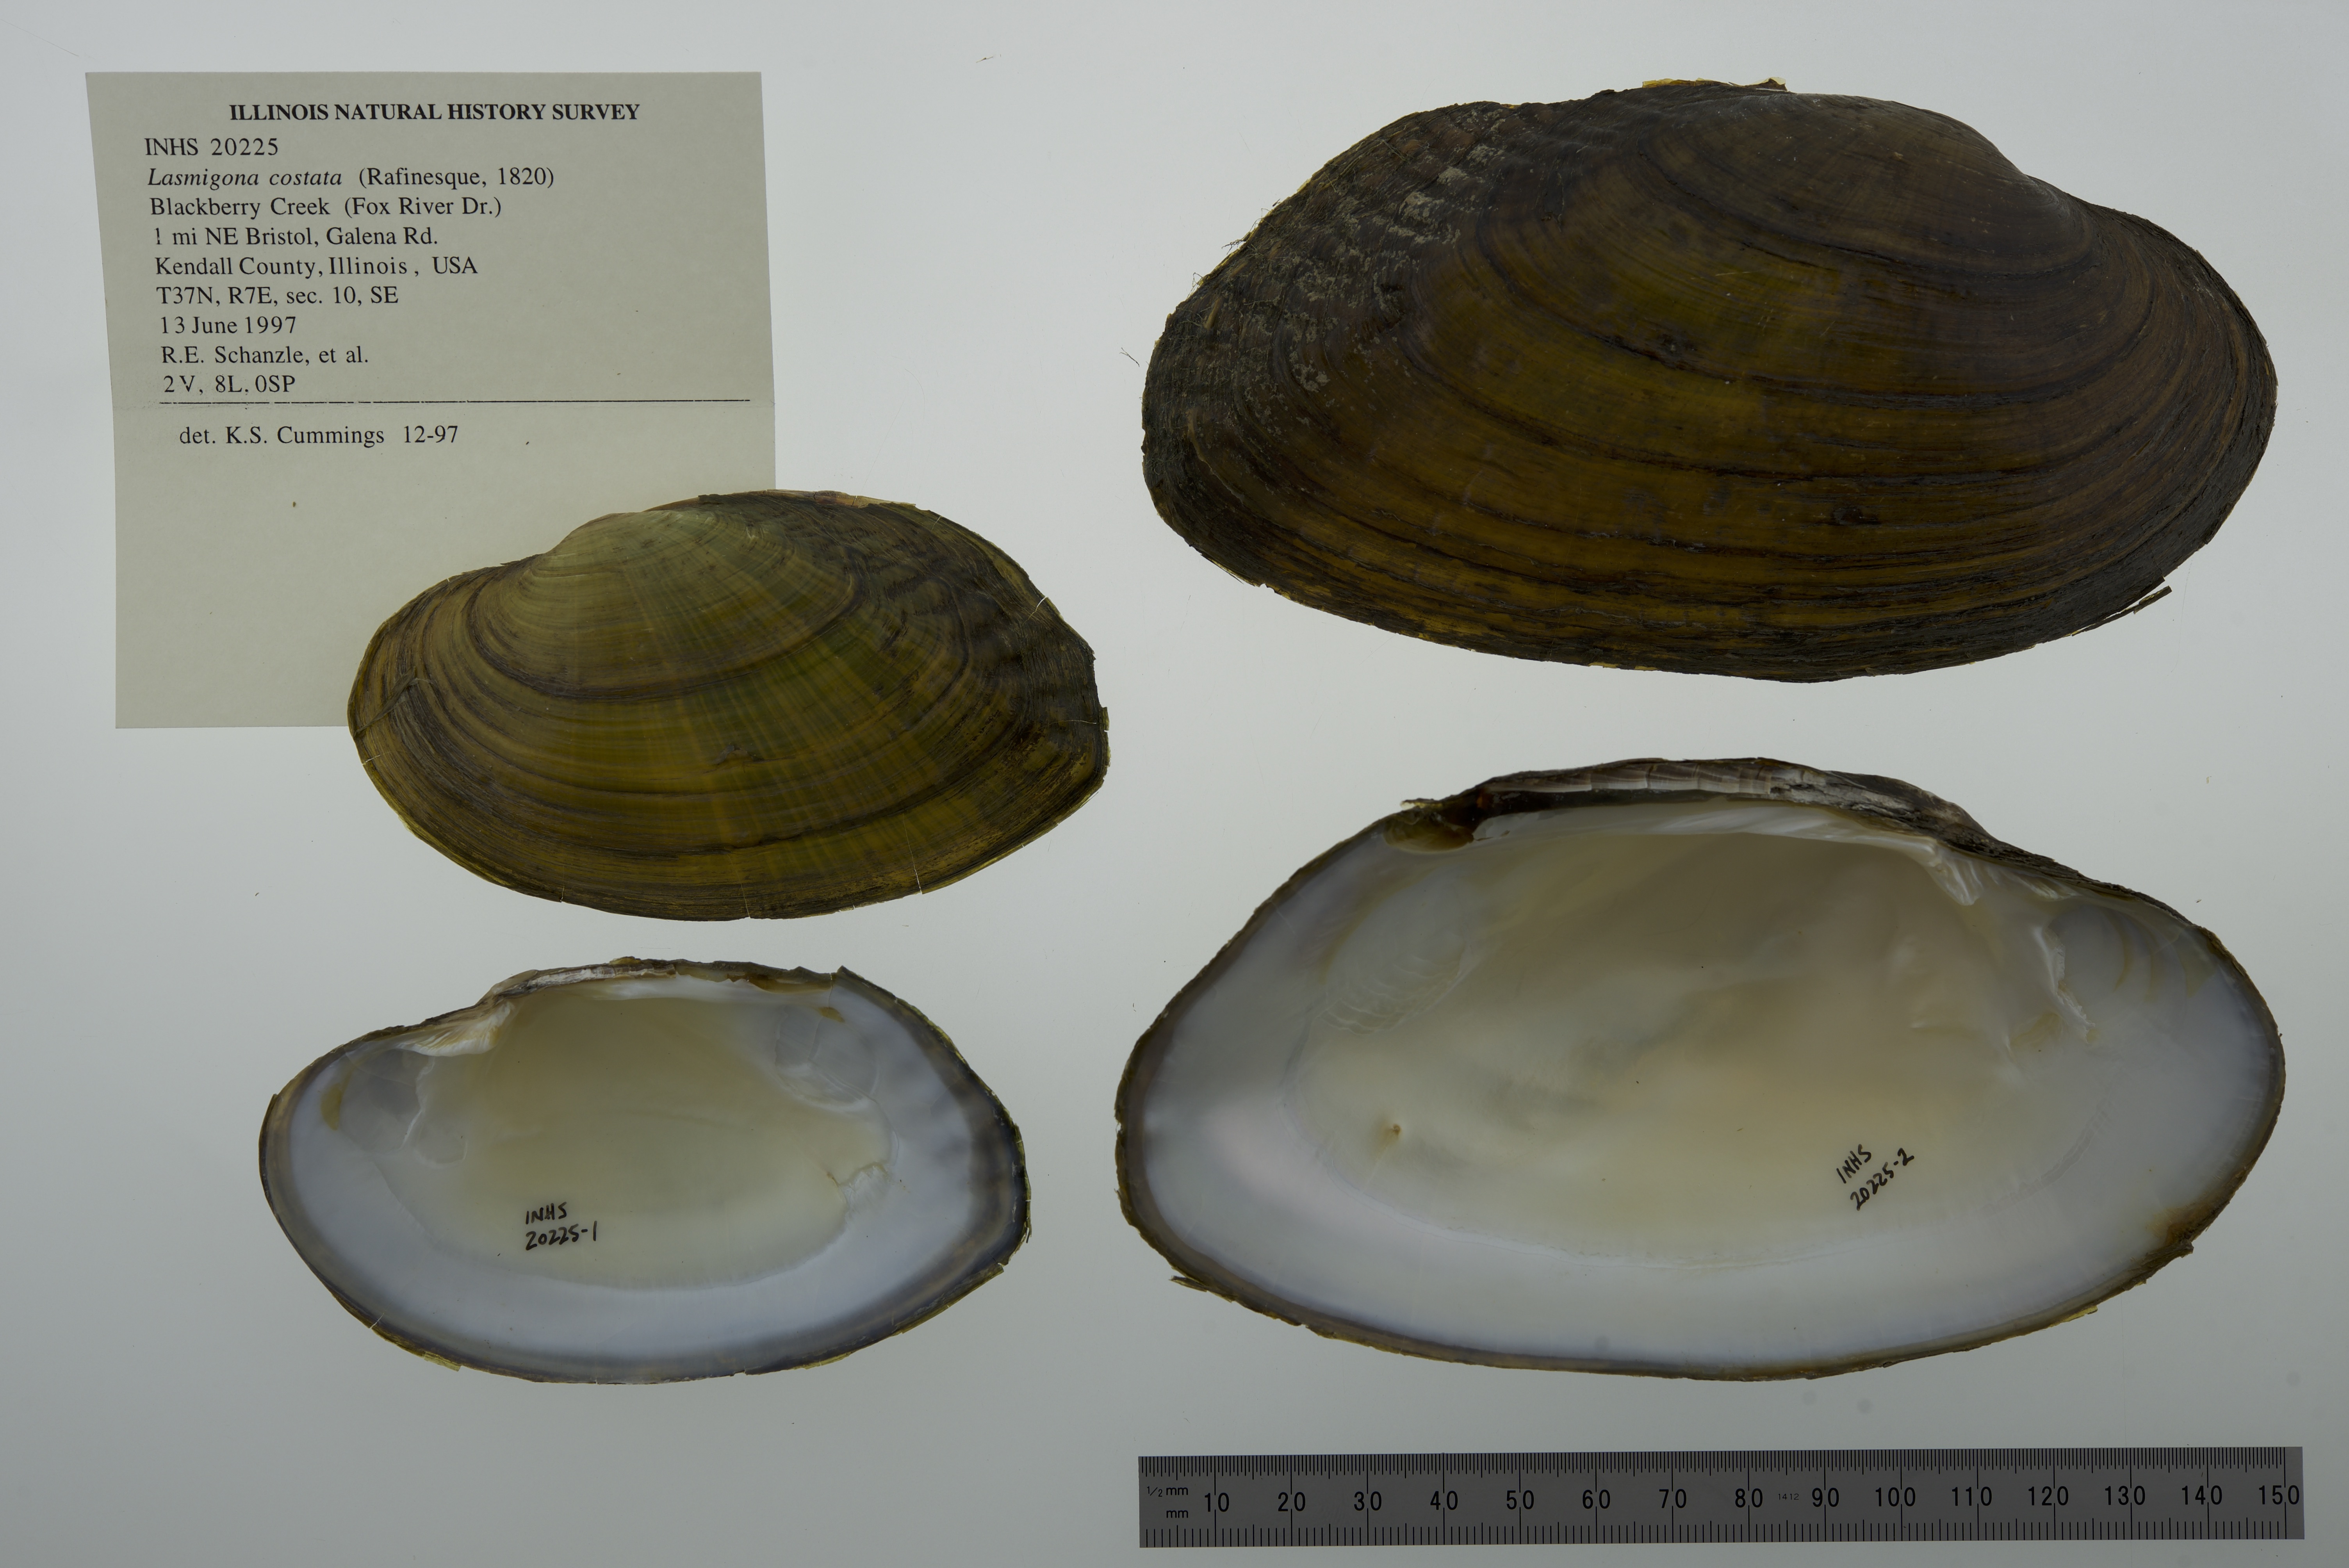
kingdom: Animalia
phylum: Mollusca
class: Bivalvia
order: Unionida
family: Unionidae
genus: Lasmigona
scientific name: Lasmigona costata
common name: Flutedshell
